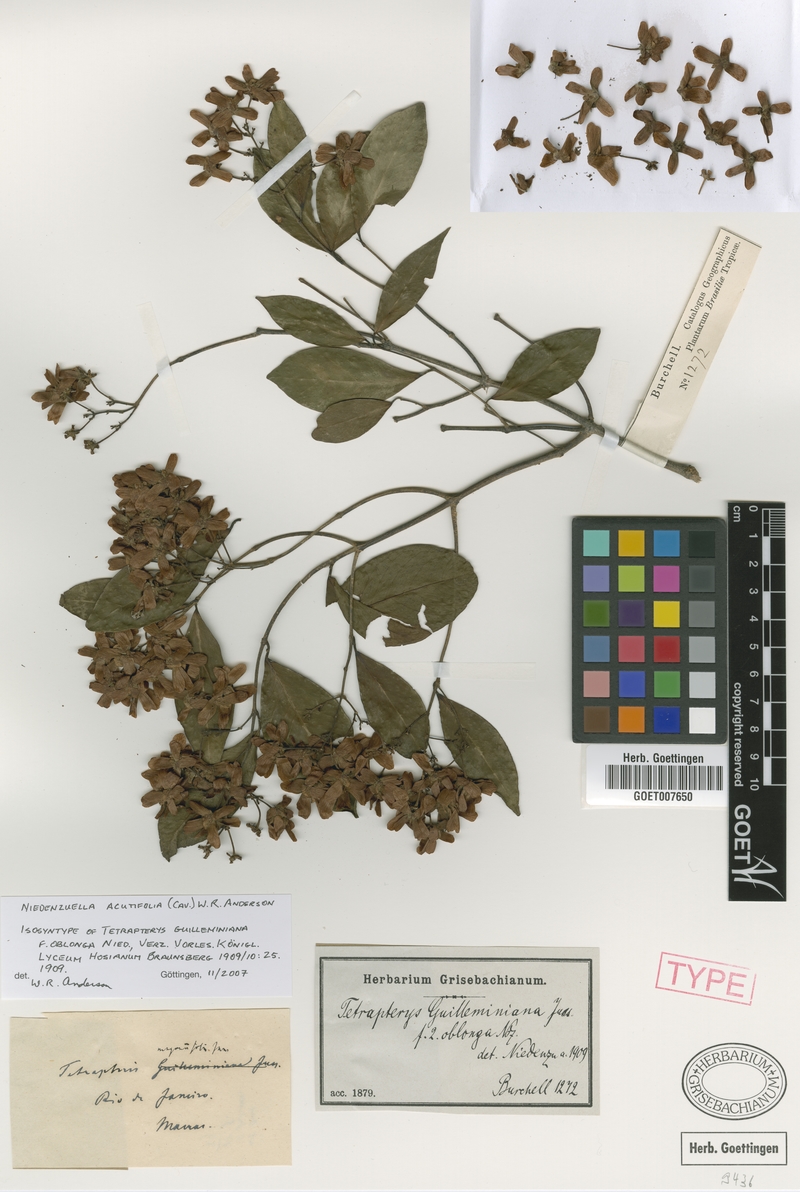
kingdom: Plantae
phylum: Tracheophyta
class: Magnoliopsida
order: Malpighiales
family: Malpighiaceae
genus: Niedenzuella
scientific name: Niedenzuella acutifolia
